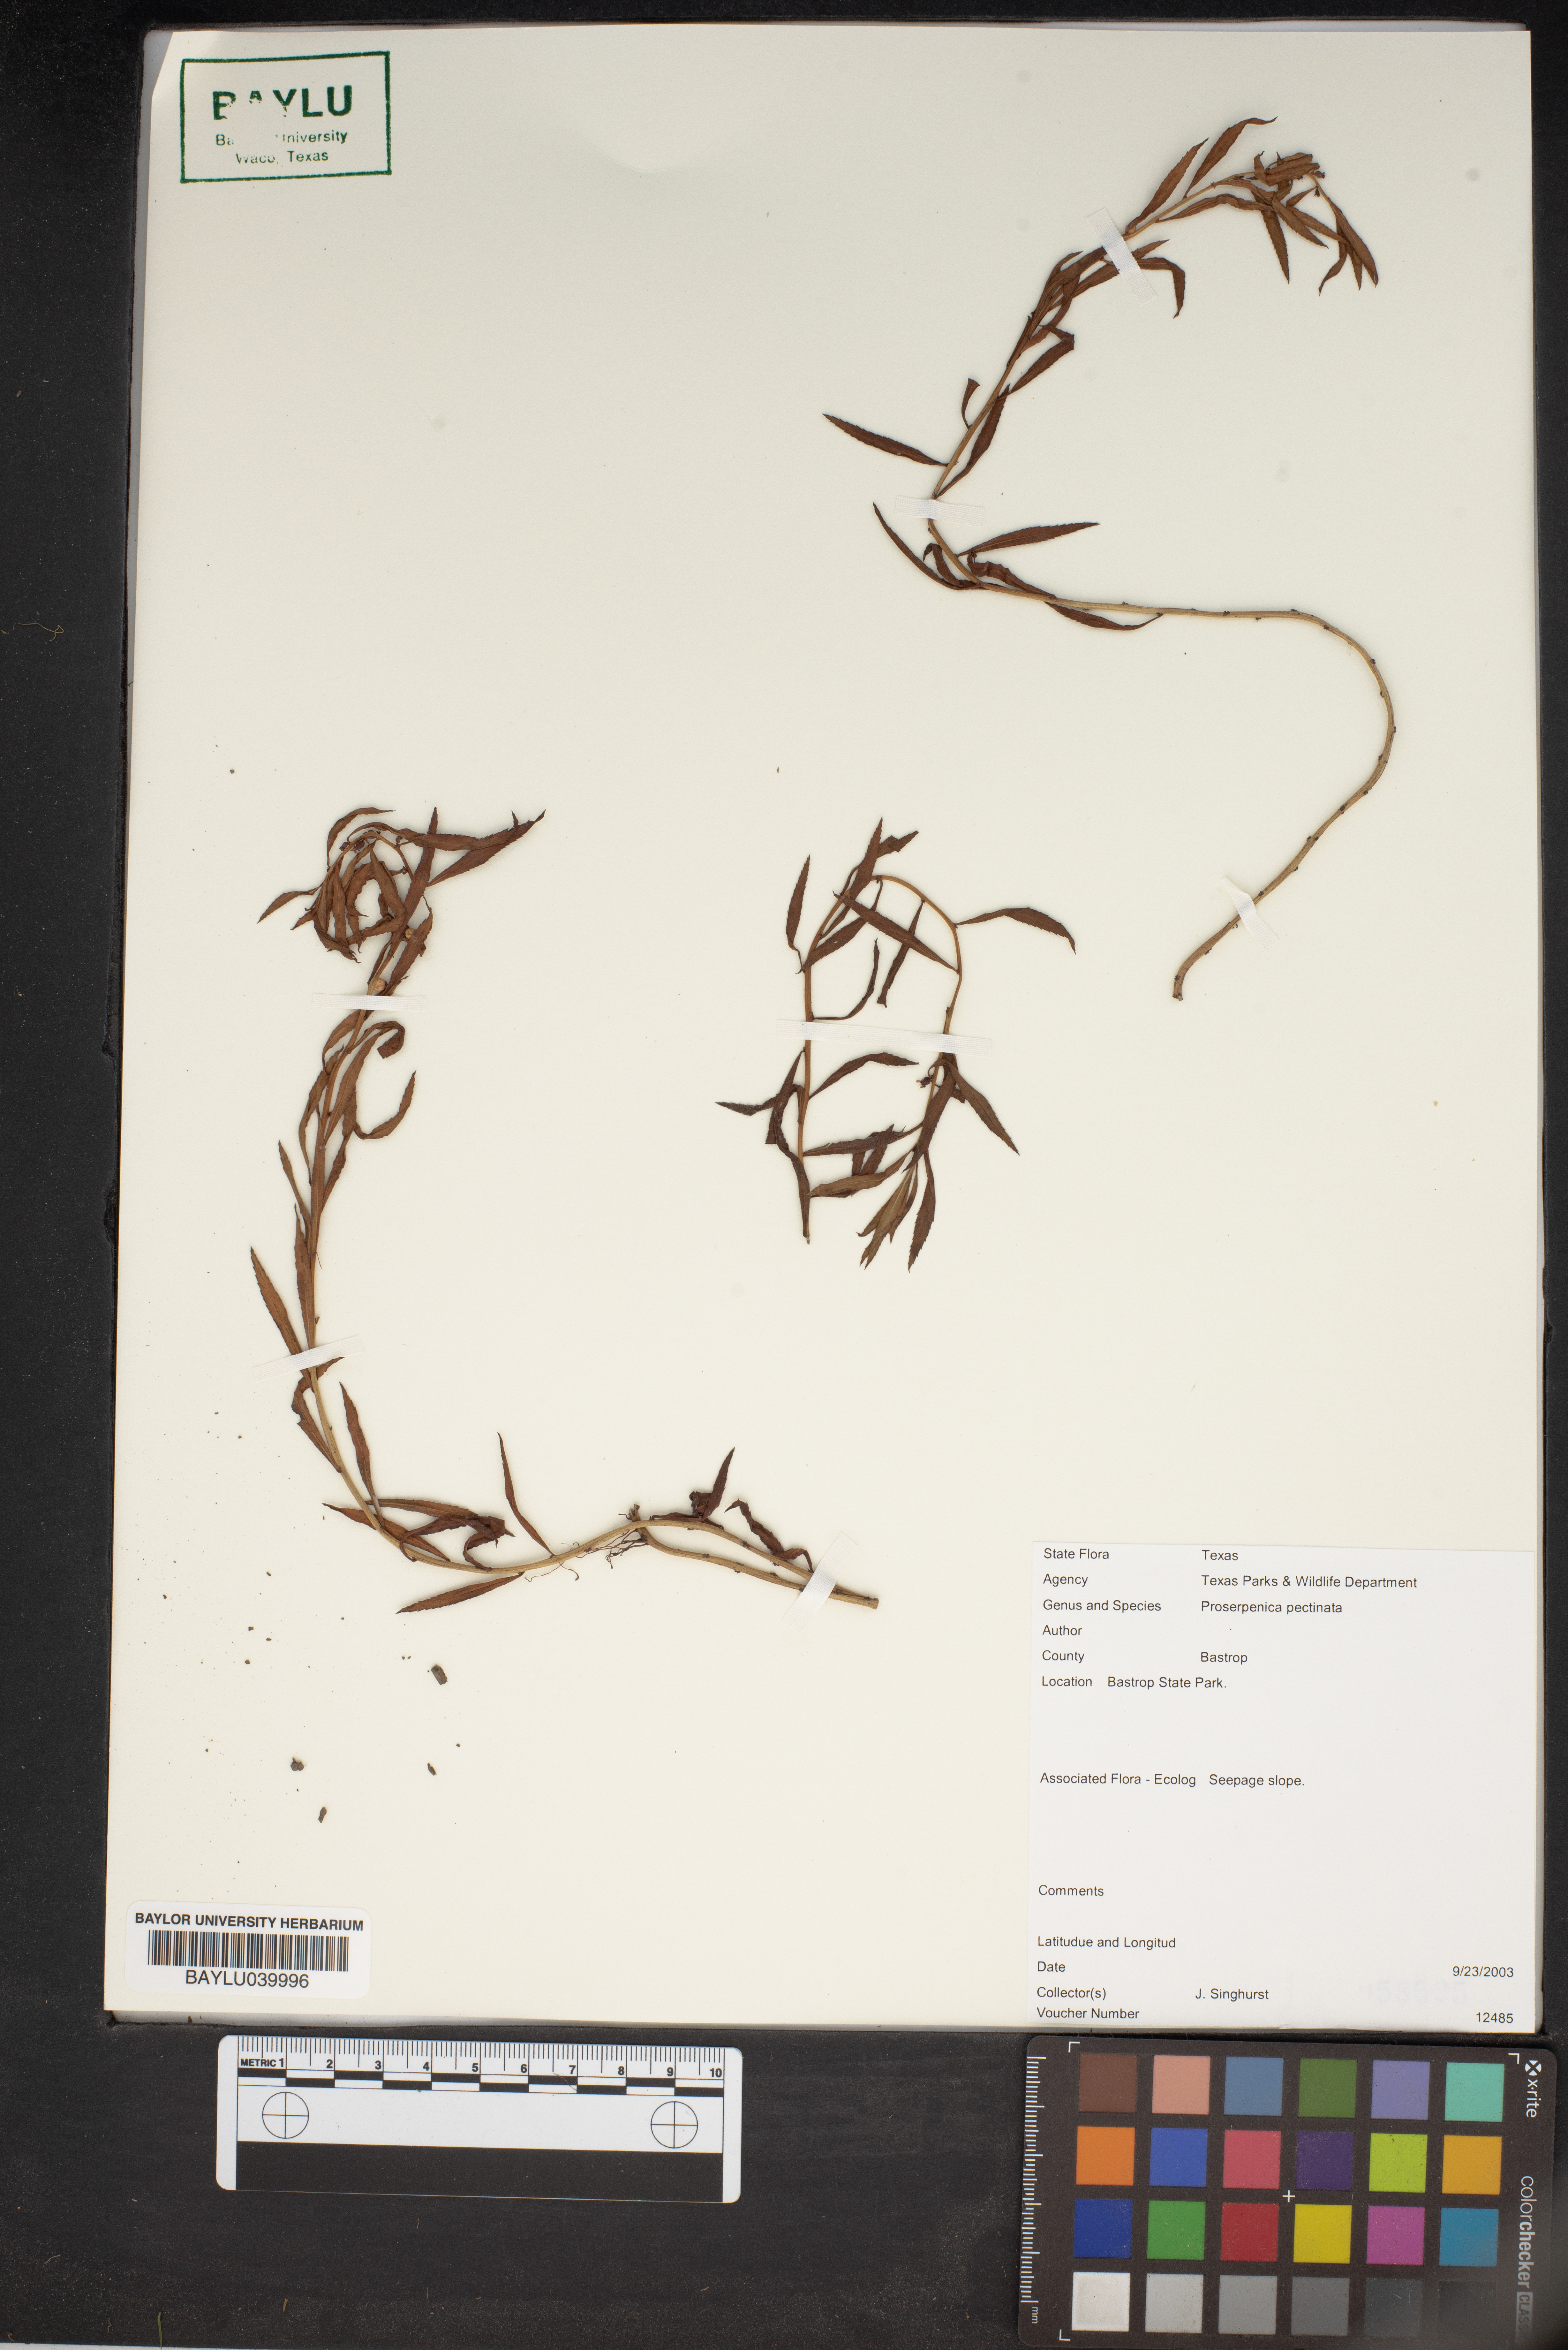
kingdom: Plantae
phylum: Tracheophyta
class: Magnoliopsida
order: Saxifragales
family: Haloragaceae
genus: Proserpinaca
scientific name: Proserpinaca pectinata
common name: Comb-leaved mermaidweed
